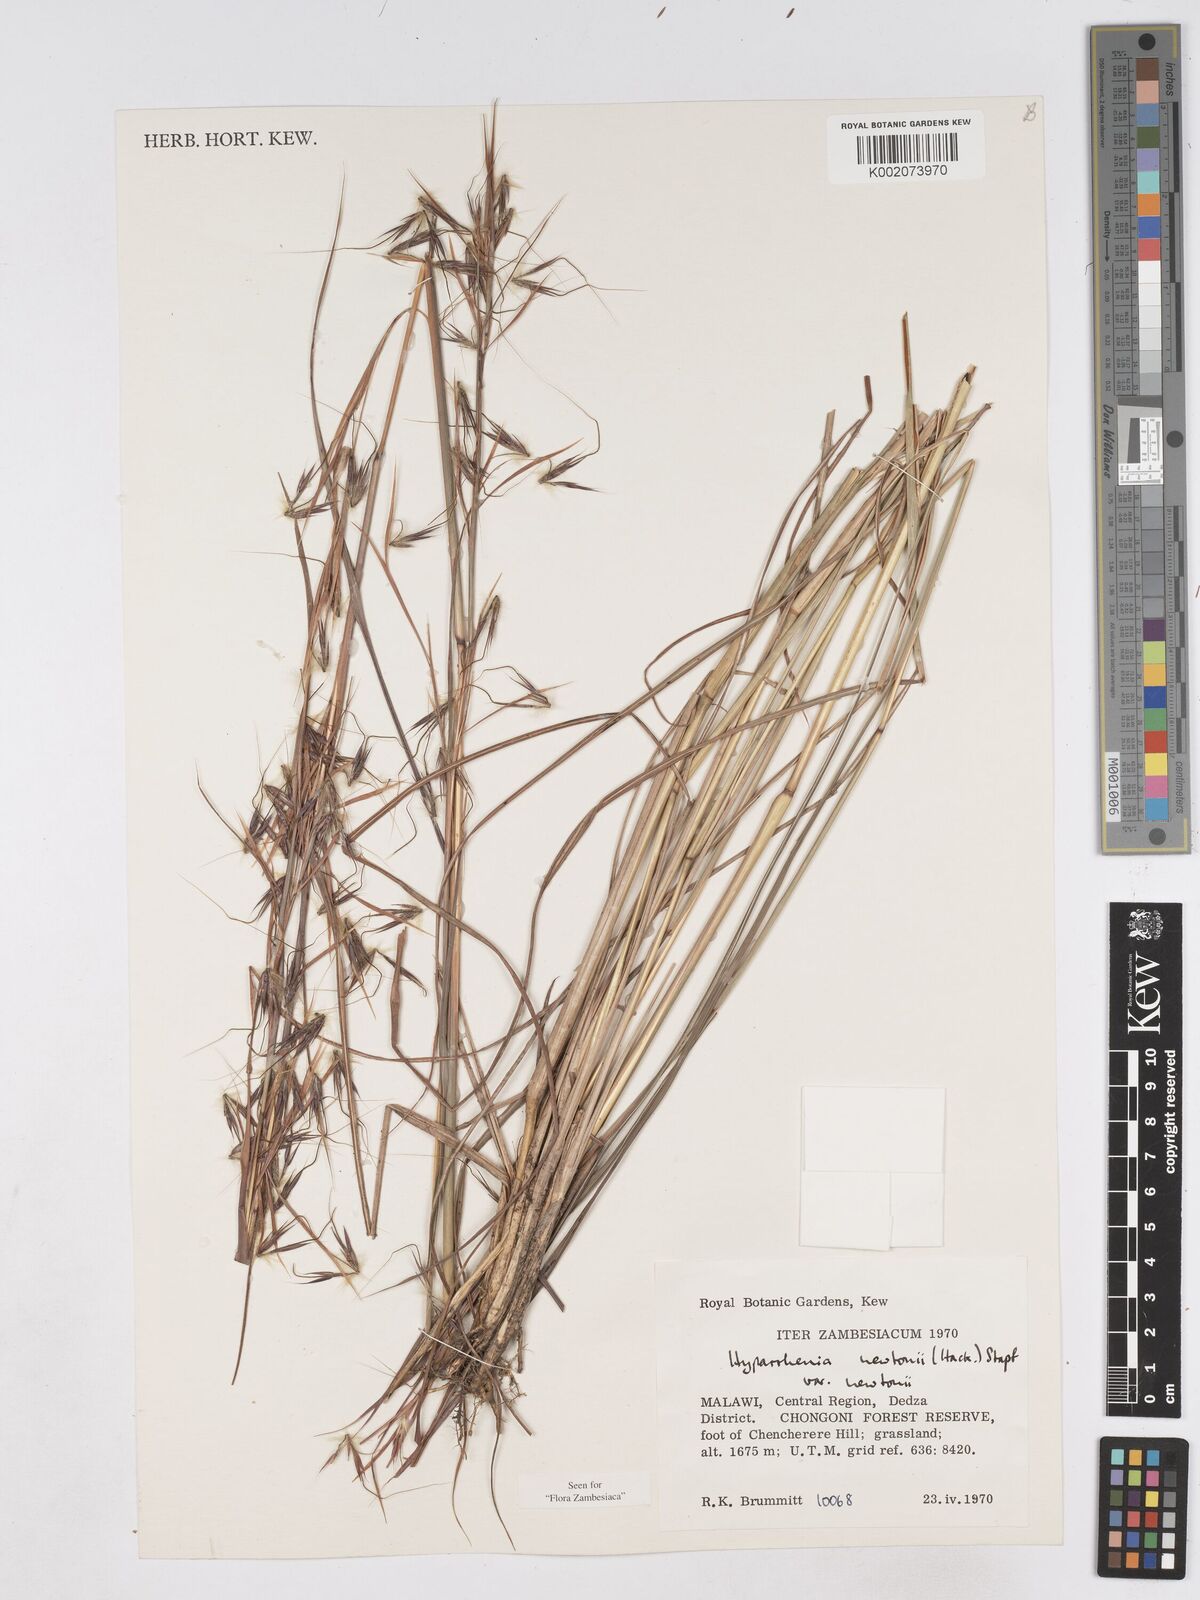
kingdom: Plantae
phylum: Tracheophyta
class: Liliopsida
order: Poales
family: Poaceae
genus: Hyparrhenia
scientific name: Hyparrhenia newtonii
